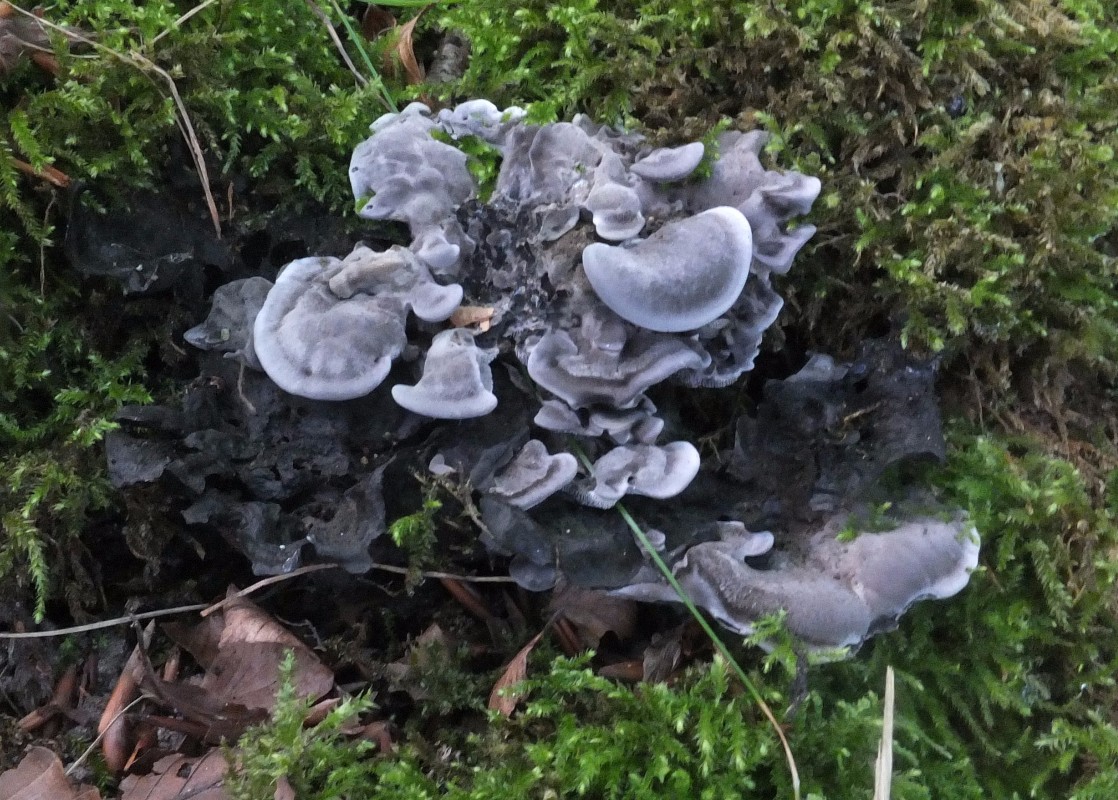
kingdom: Fungi
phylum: Basidiomycota
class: Agaricomycetes
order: Thelephorales
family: Thelephoraceae
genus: Phellodon
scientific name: Phellodon
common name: mørk duftpigsvamp
